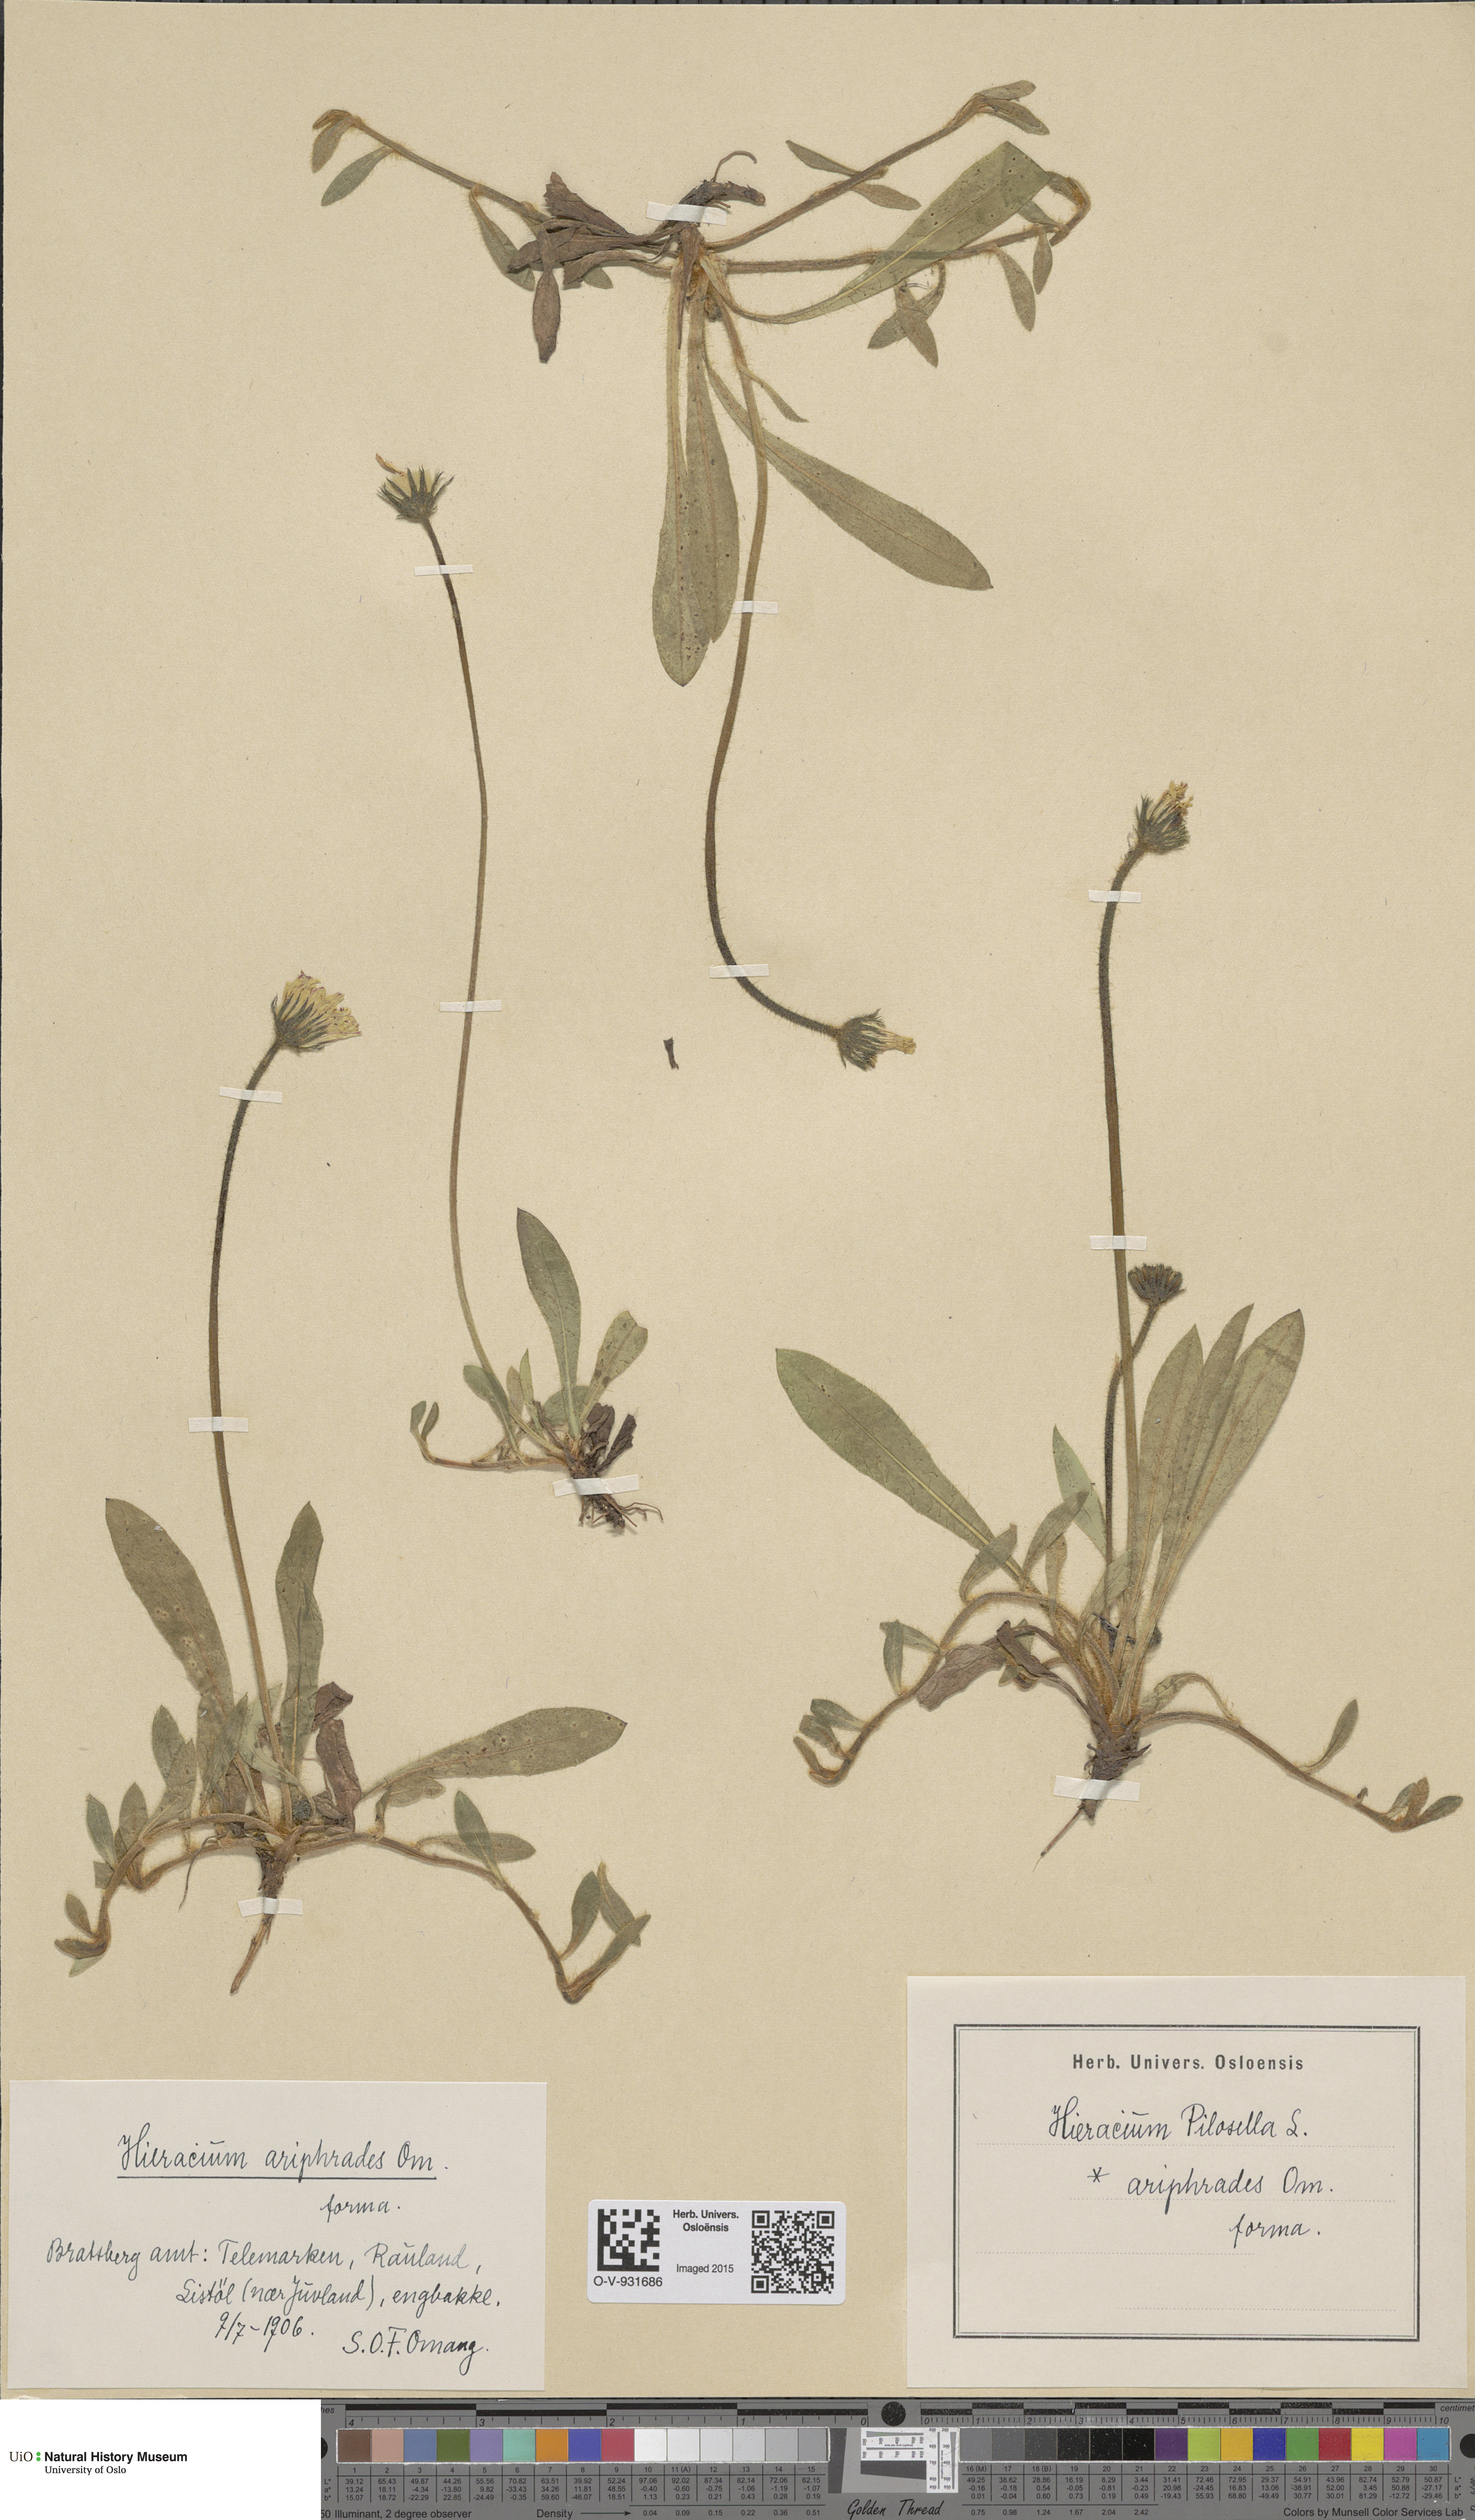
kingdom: Plantae
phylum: Tracheophyta
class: Magnoliopsida
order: Asterales
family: Asteraceae
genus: Pilosella
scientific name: Pilosella officinarum
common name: Mouse-ear hawkweed
